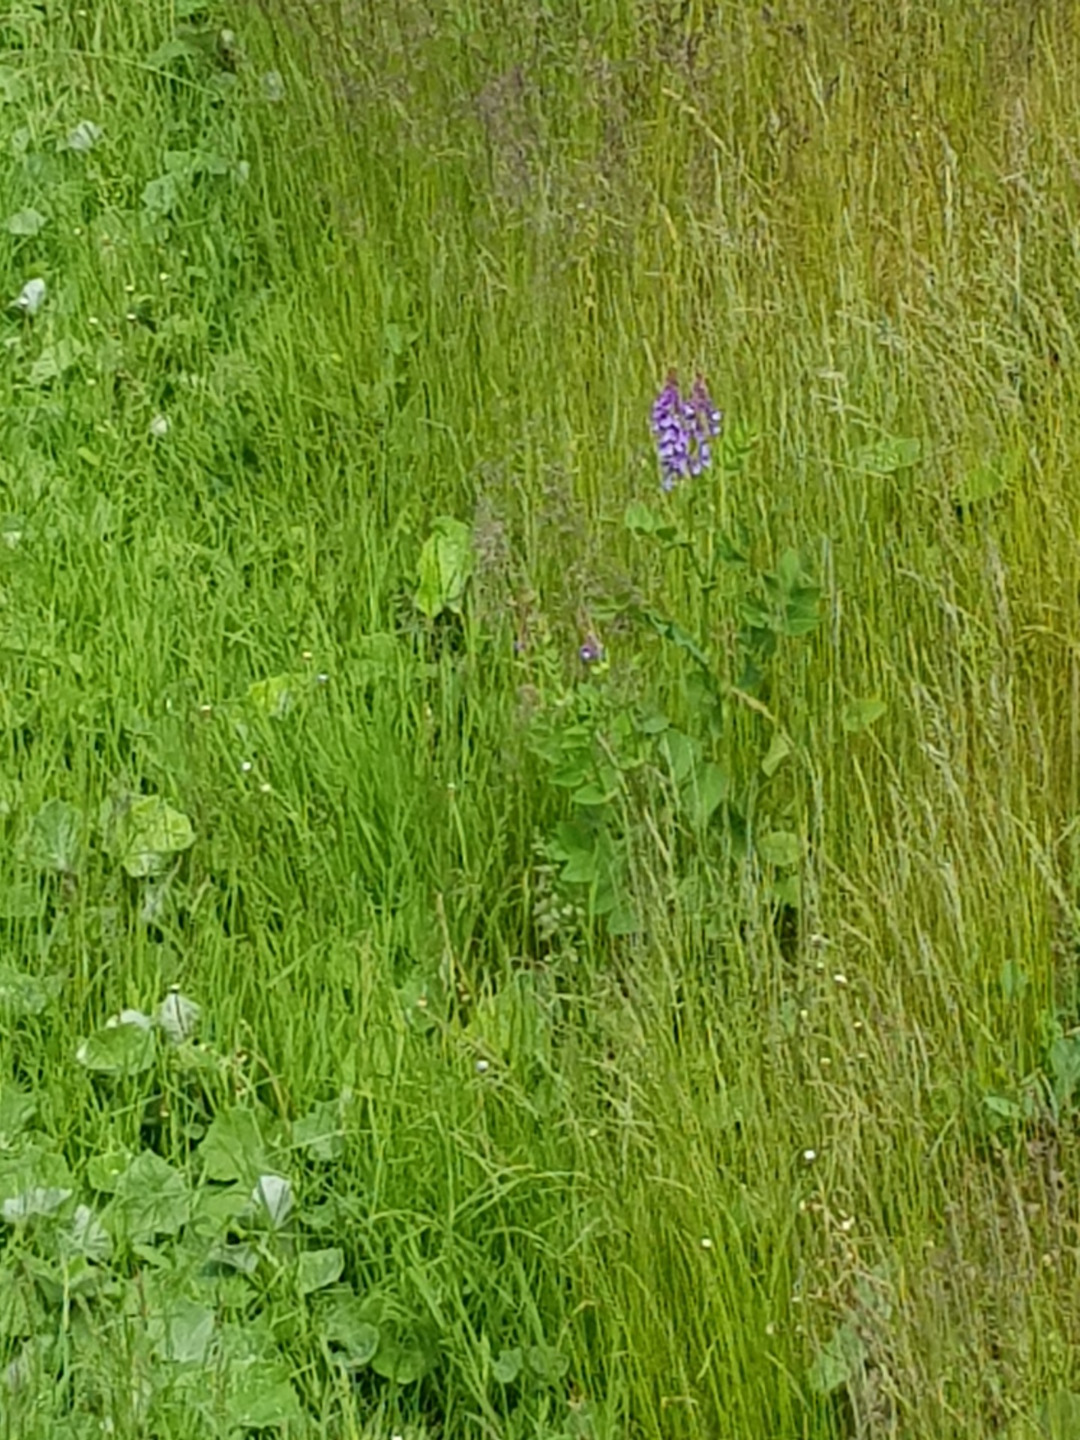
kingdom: Plantae
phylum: Tracheophyta
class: Magnoliopsida
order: Fabales
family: Fabaceae
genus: Galega
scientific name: Galega orientalis
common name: Blå stregbælg
